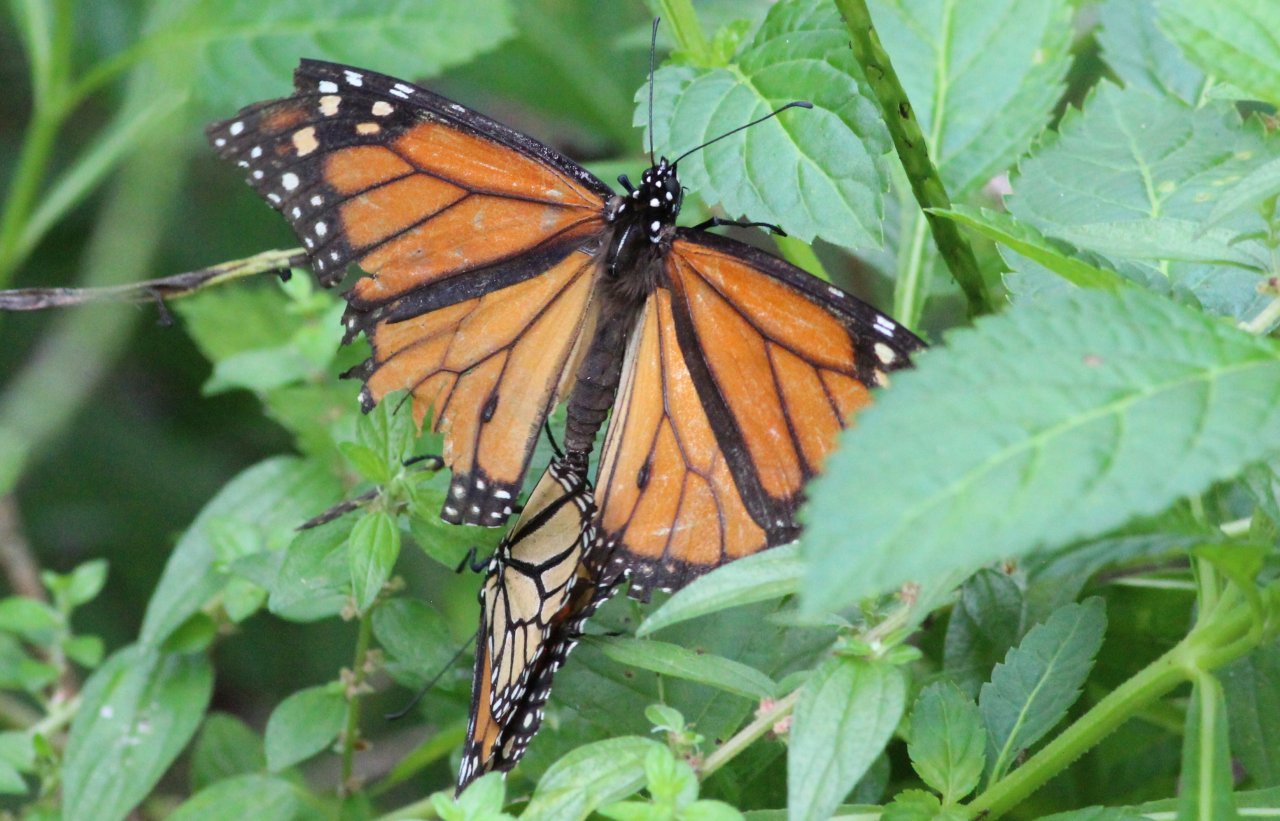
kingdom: Animalia
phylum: Arthropoda
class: Insecta
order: Lepidoptera
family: Nymphalidae
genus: Danaus
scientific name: Danaus plexippus
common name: Monarch
